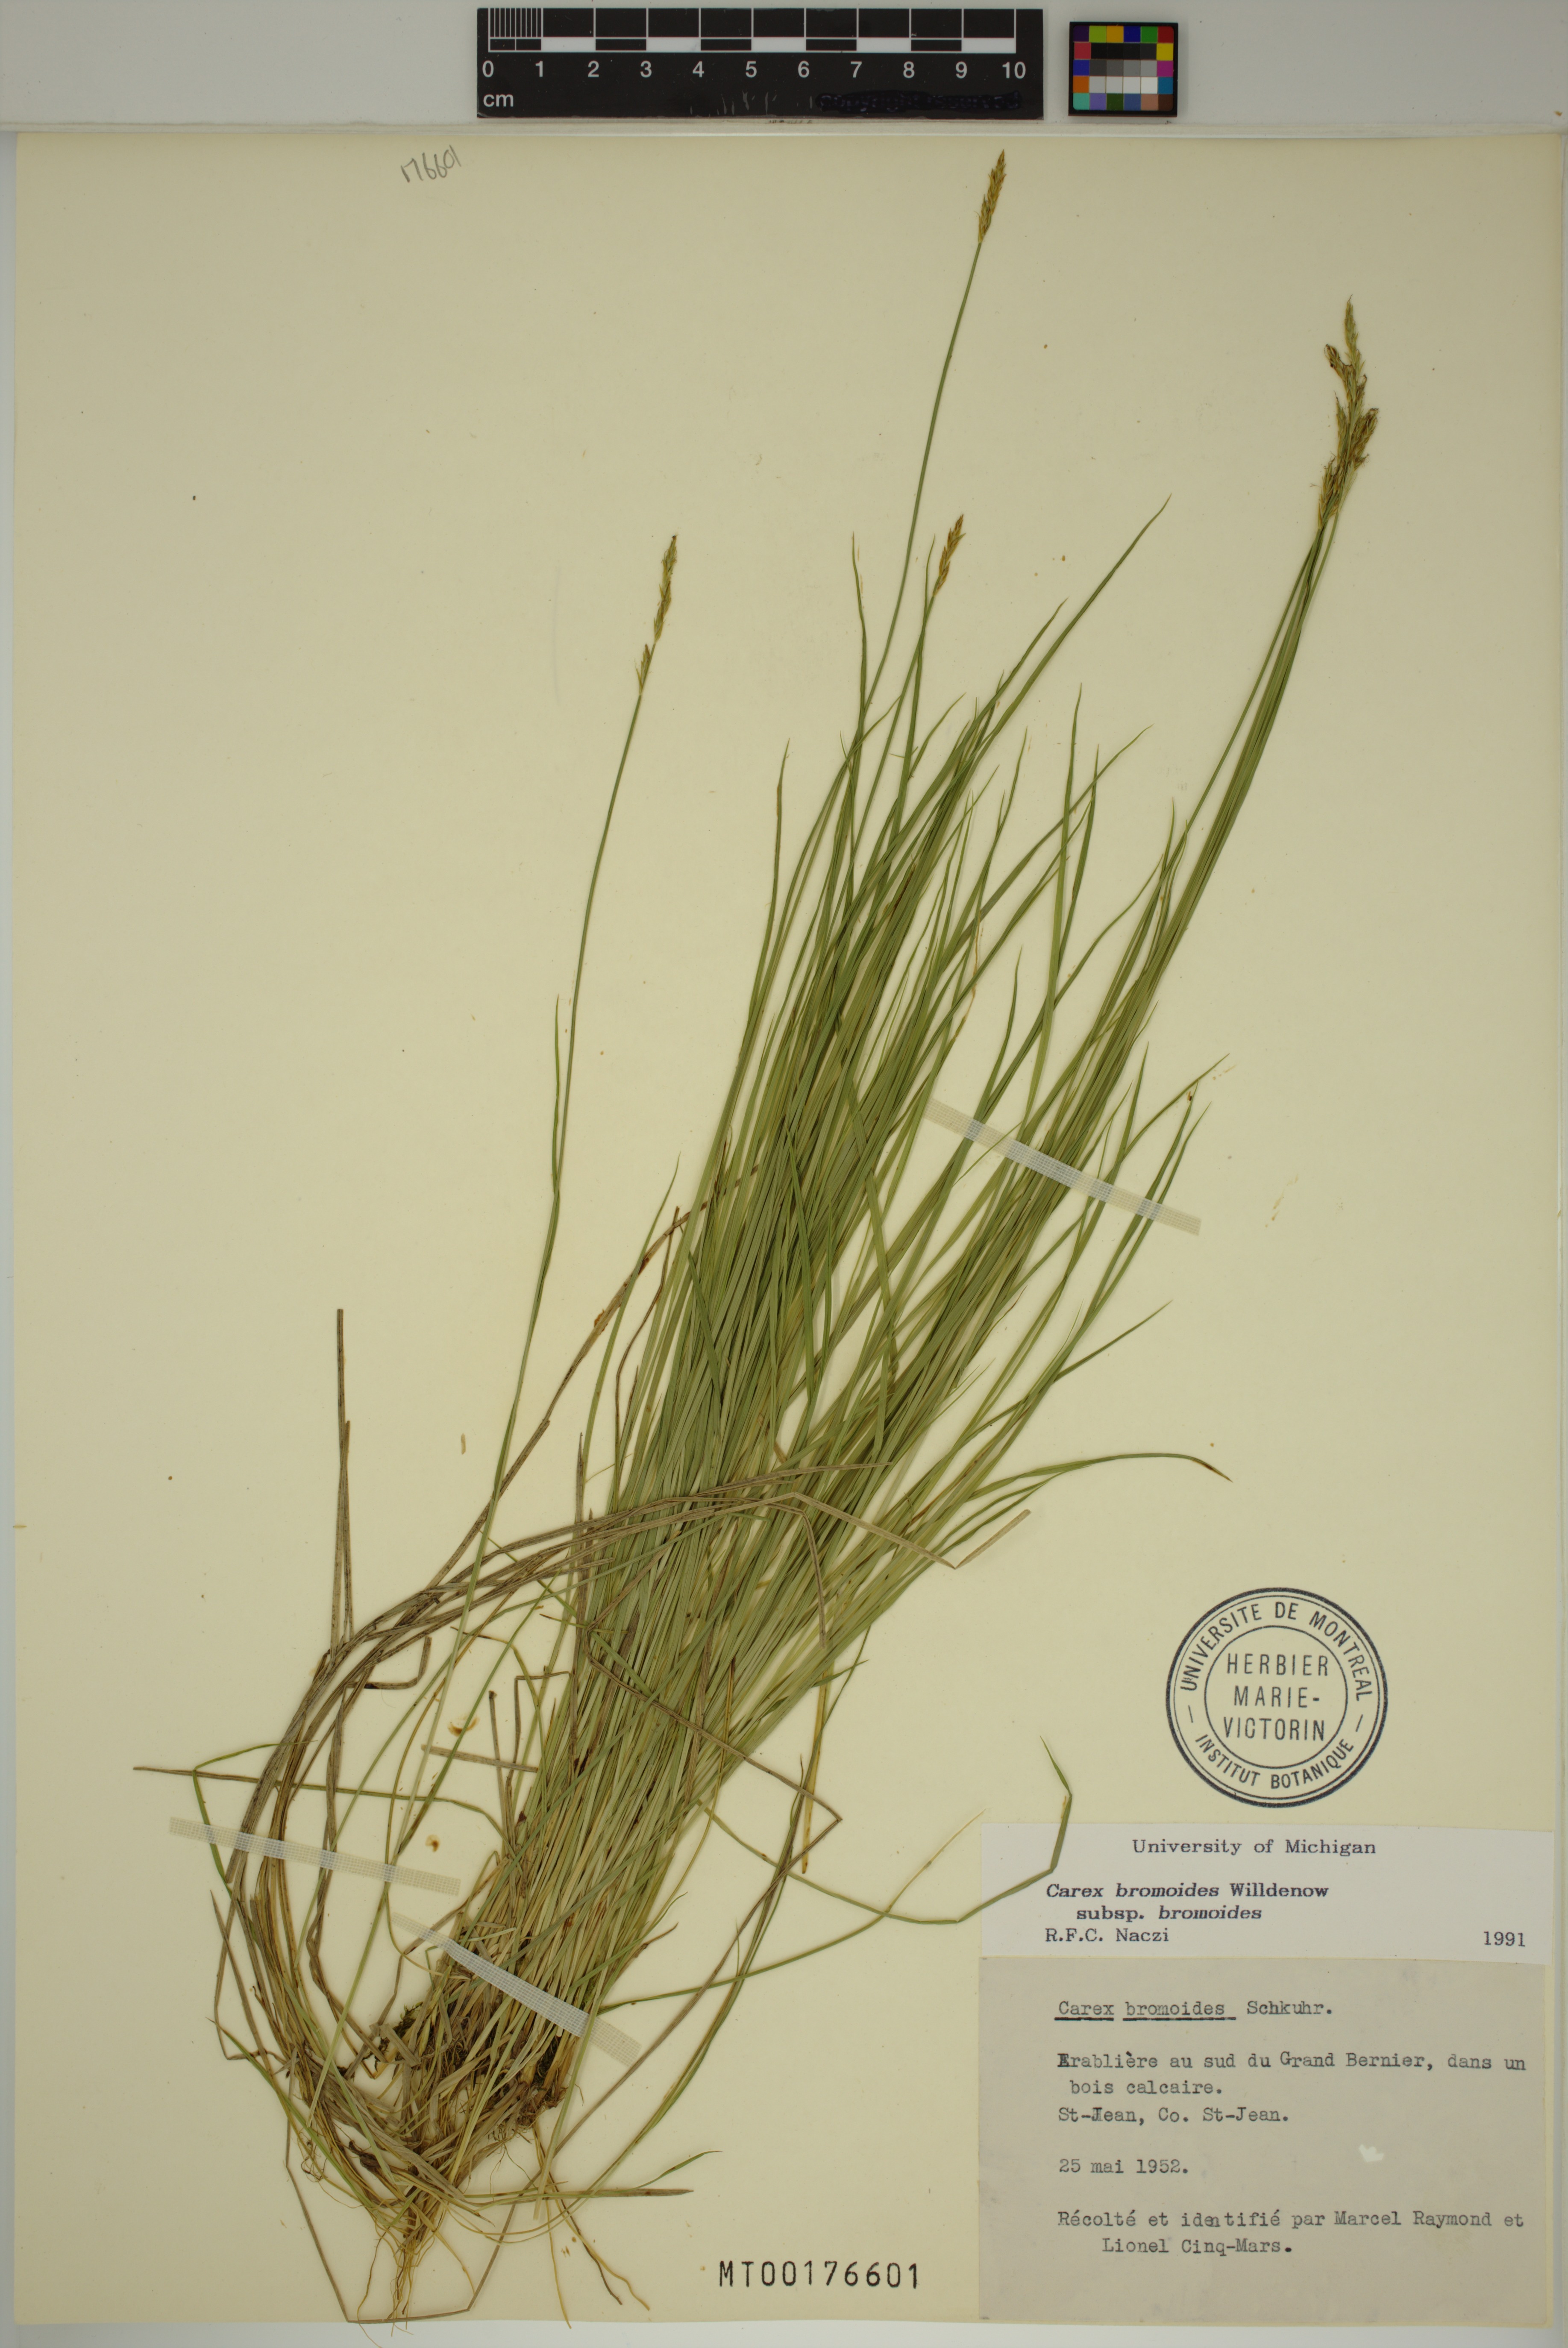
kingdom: Plantae
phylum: Tracheophyta
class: Liliopsida
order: Poales
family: Cyperaceae
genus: Carex
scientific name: Carex bromoides
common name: Brome hummock sedge
